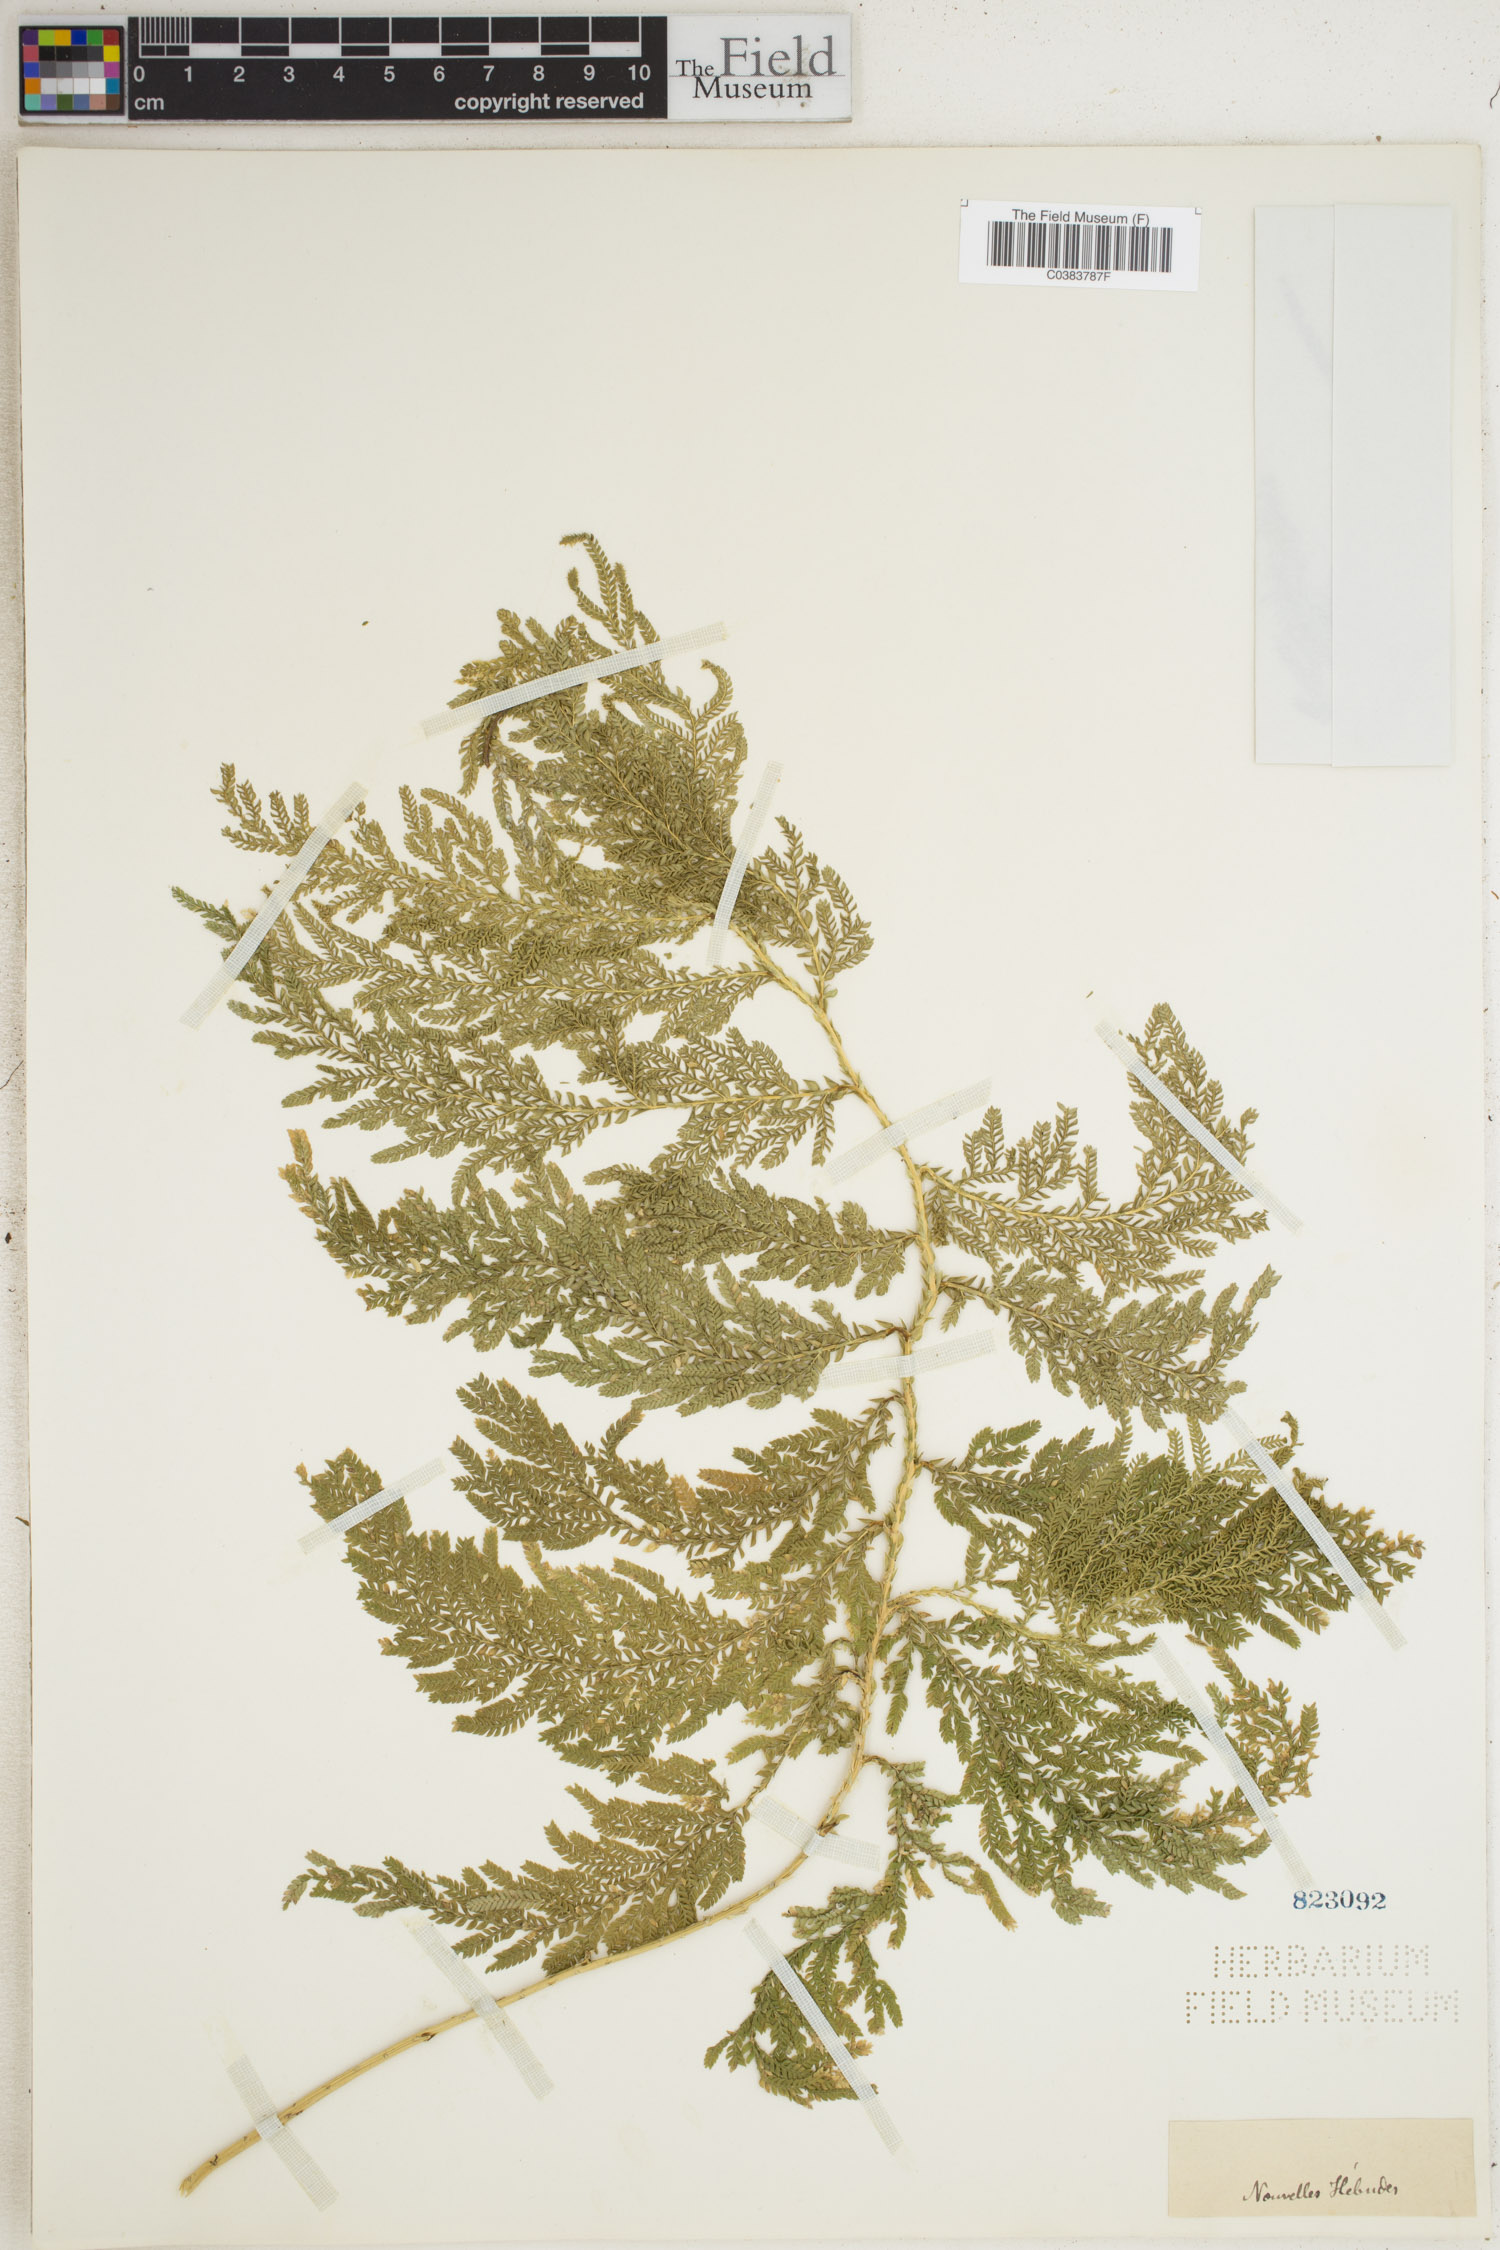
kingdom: Plantae
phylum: Tracheophyta
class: Lycopodiopsida
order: Selaginellales
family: Selaginellaceae
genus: Selaginella
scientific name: Selaginella
